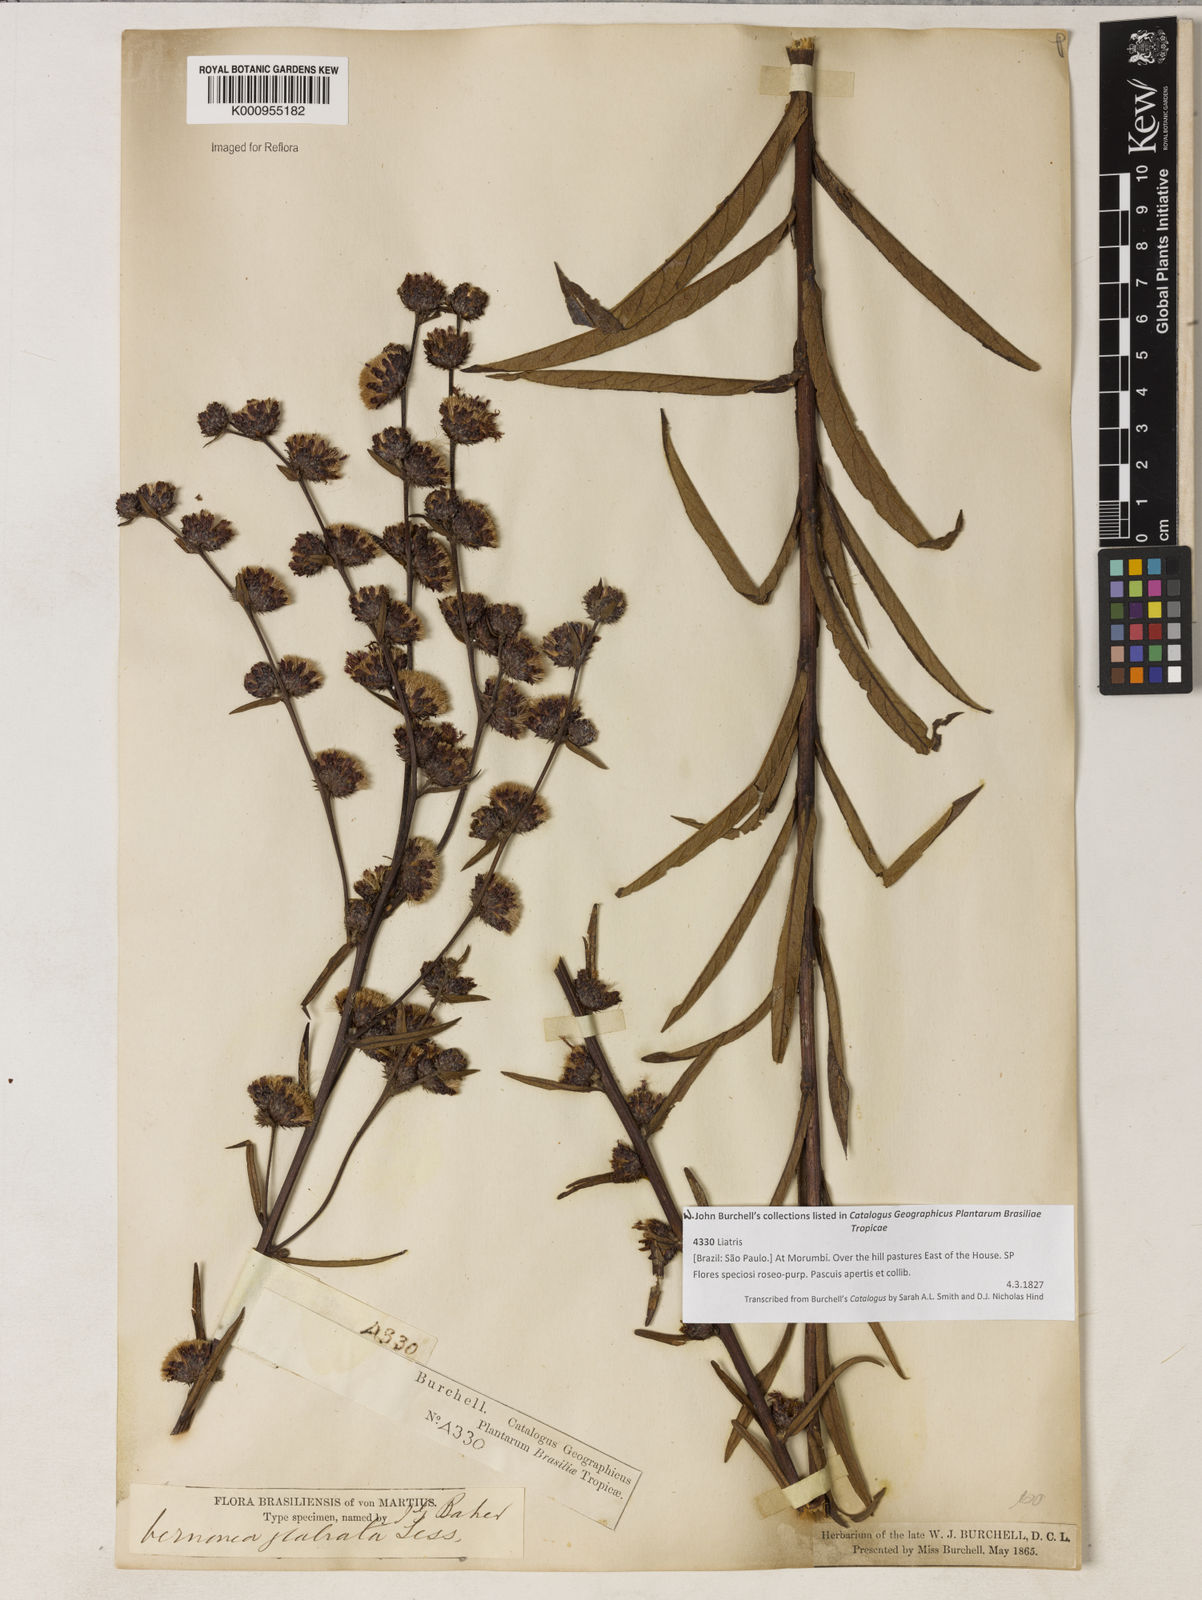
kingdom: Plantae
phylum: Tracheophyta
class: Magnoliopsida
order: Asterales
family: Asteraceae
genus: Lessingianthus
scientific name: Lessingianthus glabratus
